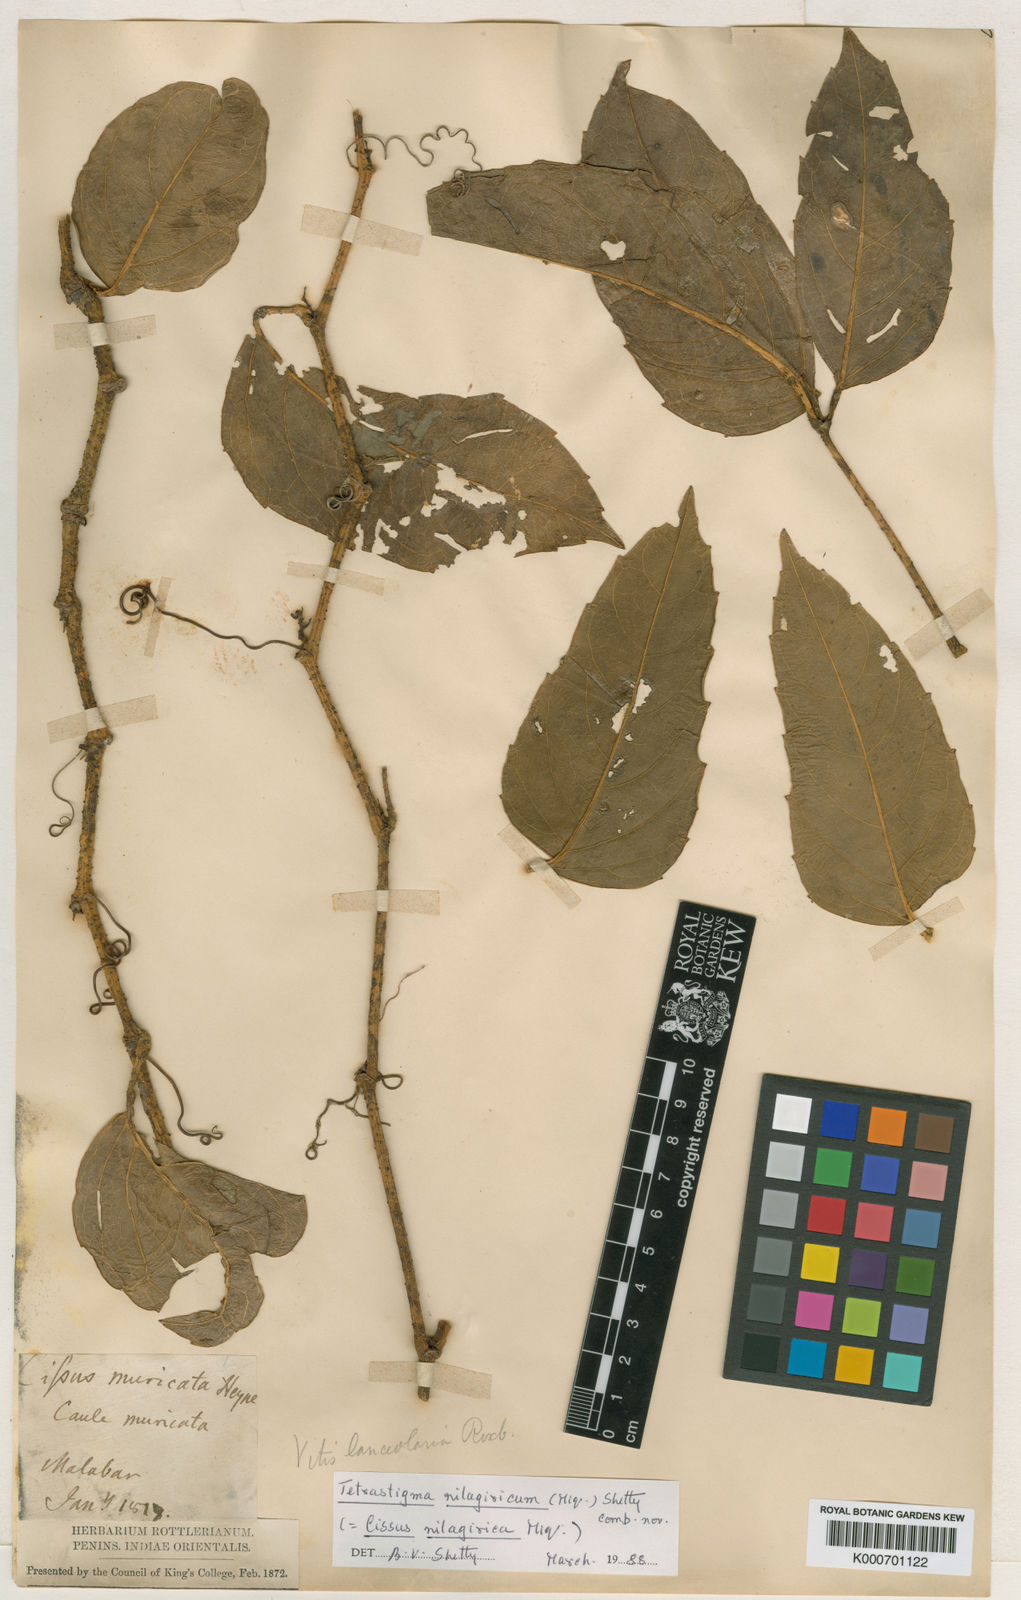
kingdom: Plantae
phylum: Tracheophyta
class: Magnoliopsida
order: Vitales
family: Vitaceae
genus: Tetrastigma
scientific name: Tetrastigma
